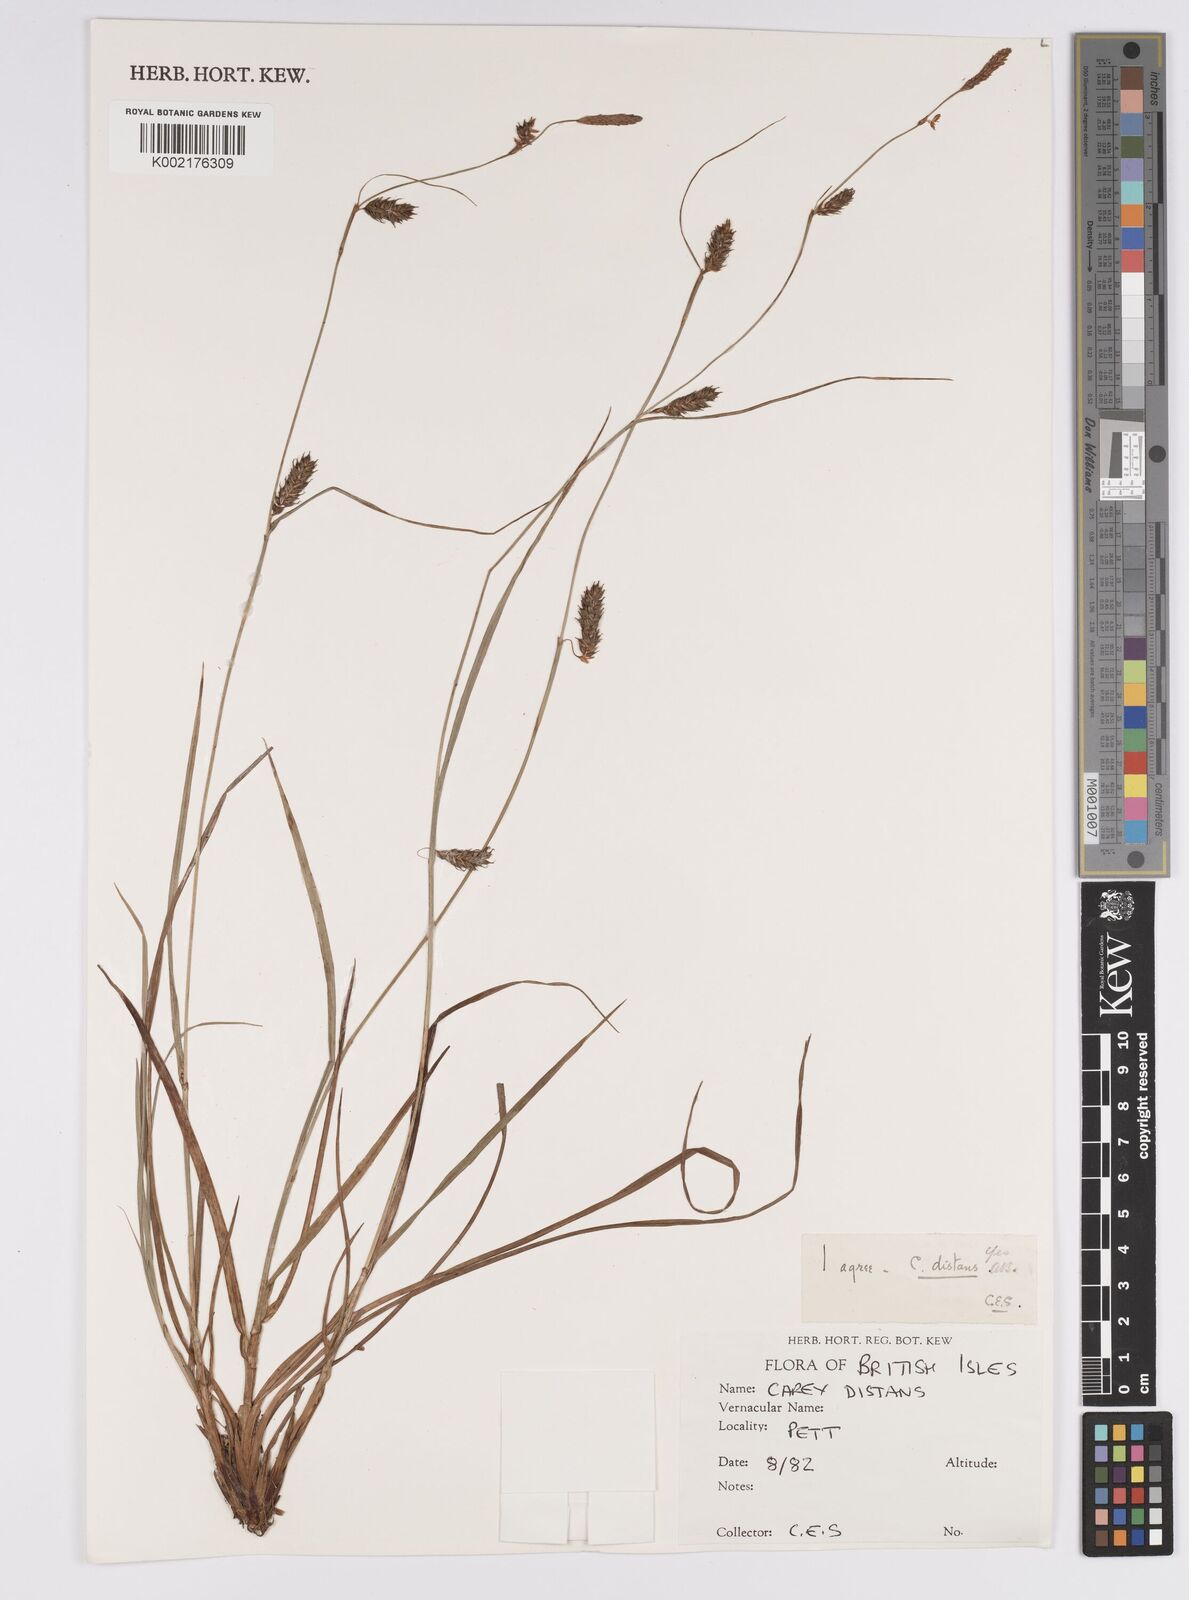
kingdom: Plantae
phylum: Tracheophyta
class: Liliopsida
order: Poales
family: Cyperaceae
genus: Carex
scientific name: Carex distans
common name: Distant sedge
